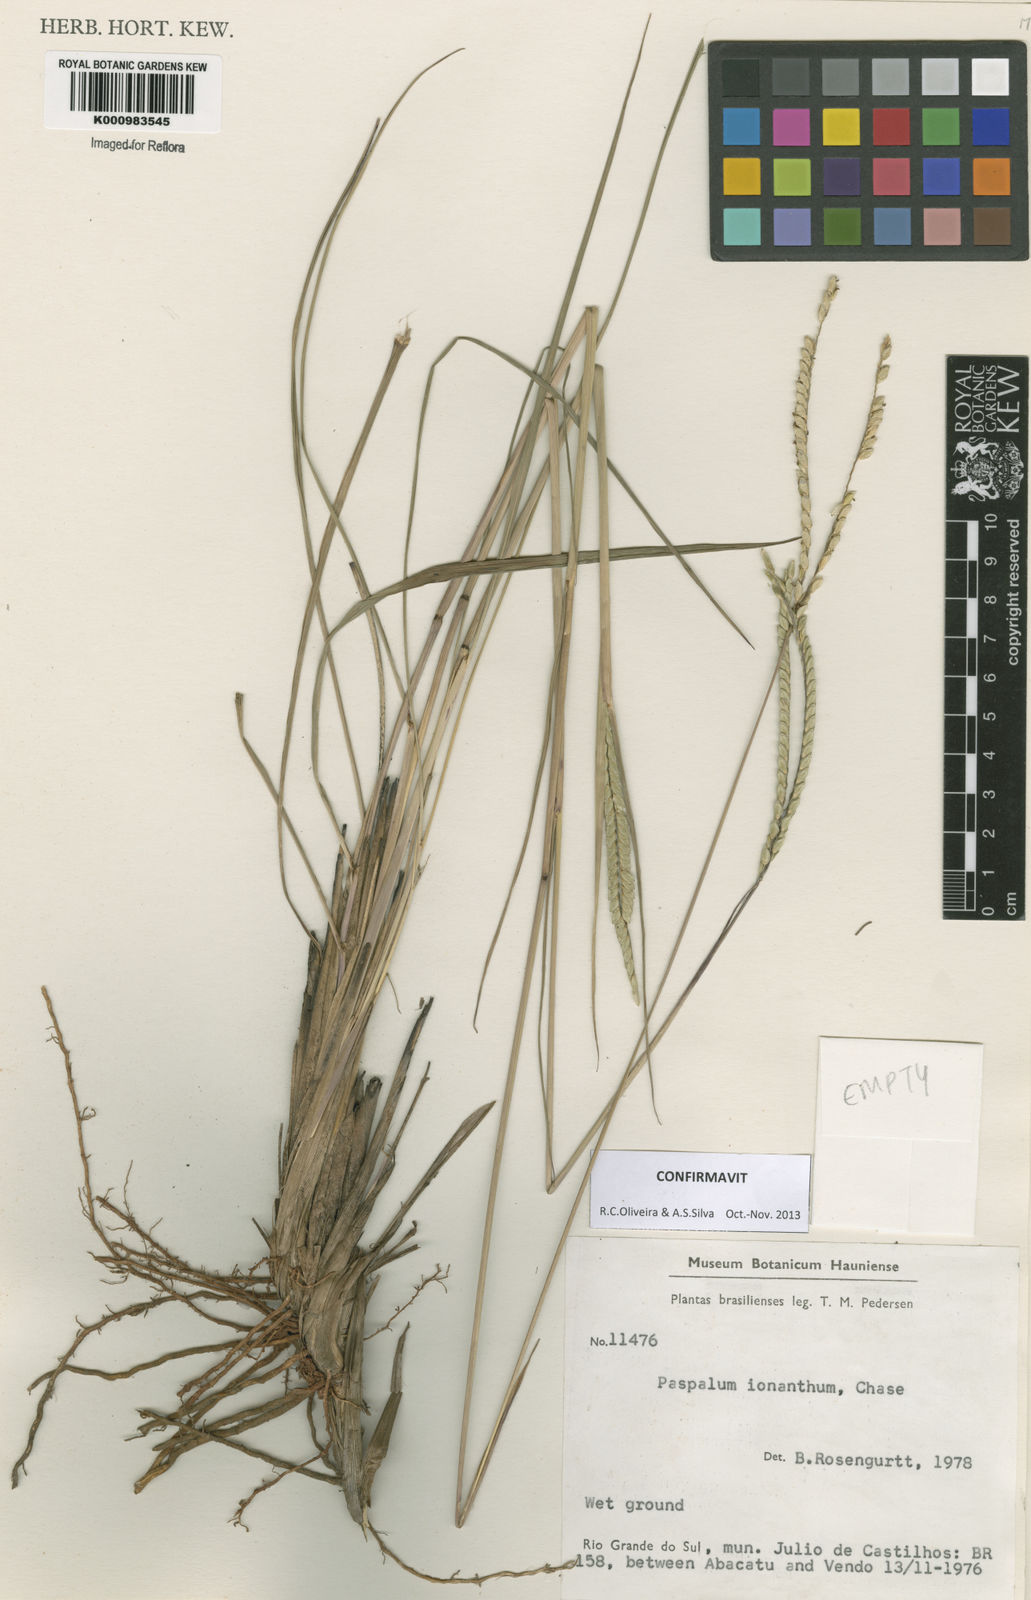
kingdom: Plantae
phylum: Tracheophyta
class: Liliopsida
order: Poales
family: Poaceae
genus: Paspalum
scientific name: Paspalum ionanthum
